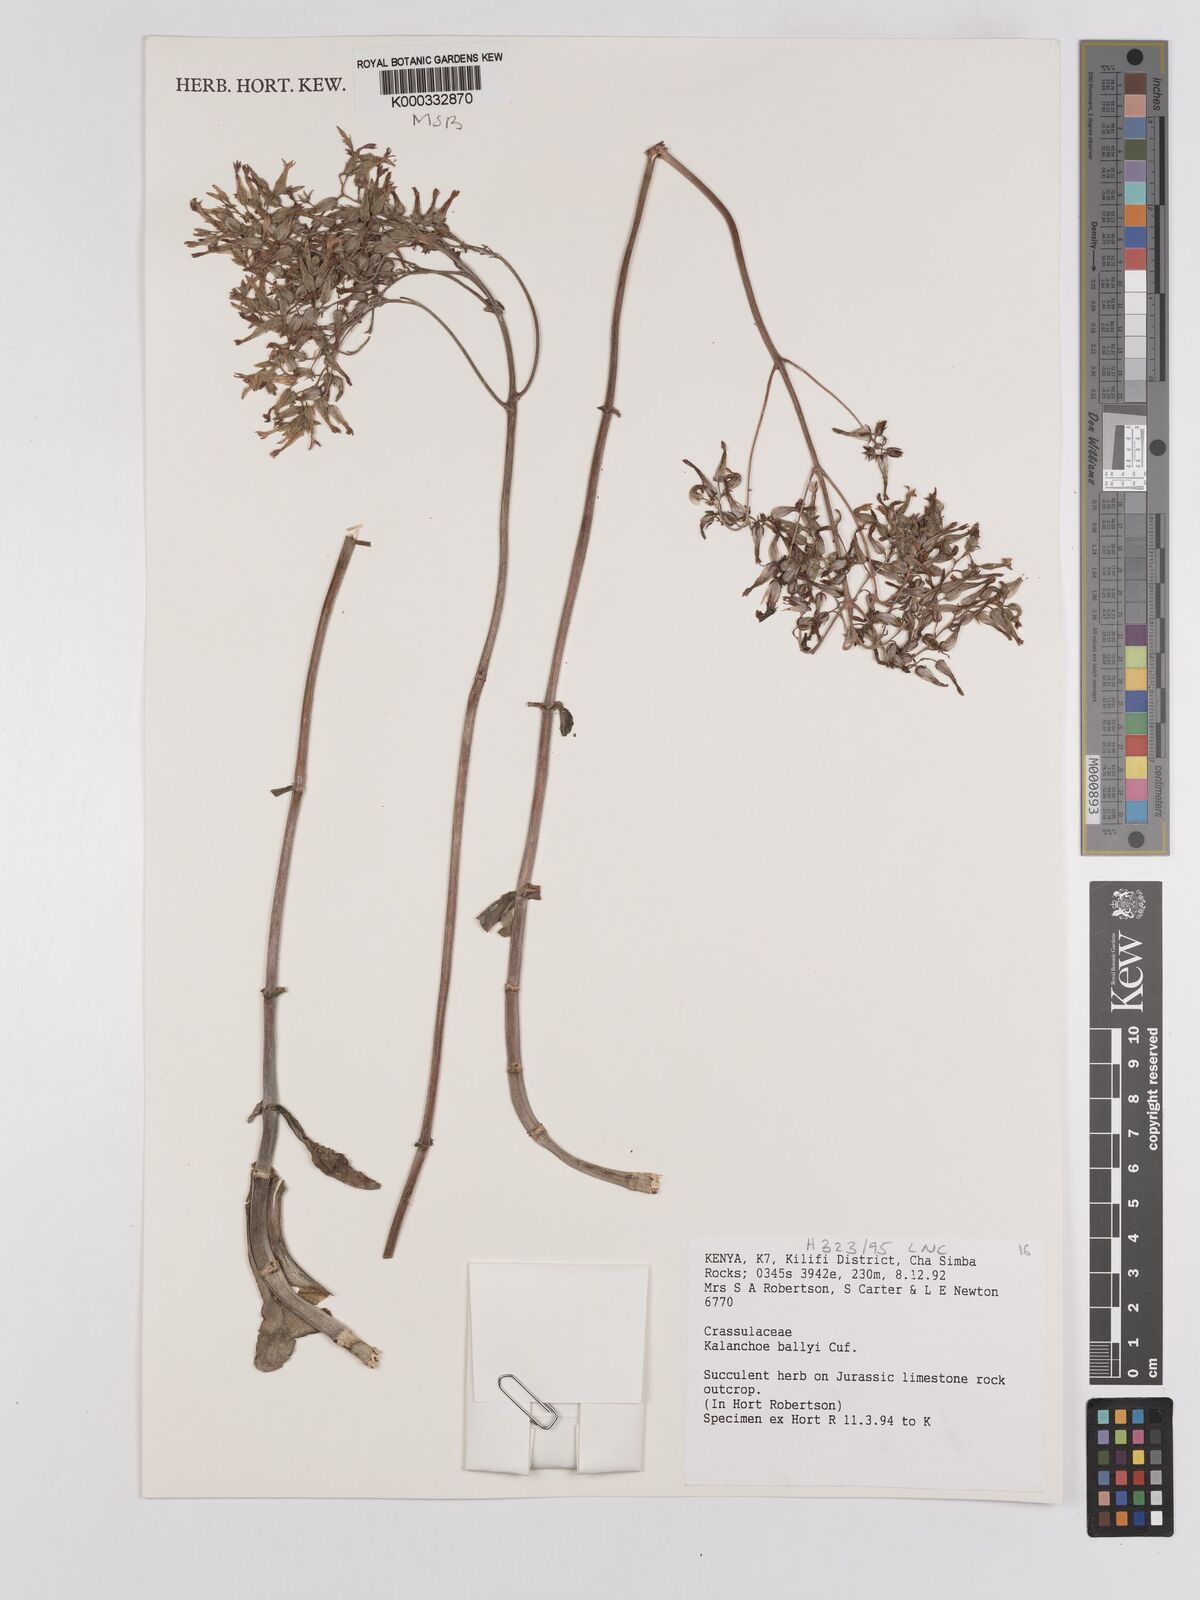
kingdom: Plantae
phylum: Tracheophyta
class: Magnoliopsida
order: Saxifragales
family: Crassulaceae
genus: Kalanchoe
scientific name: Kalanchoe ballyi
